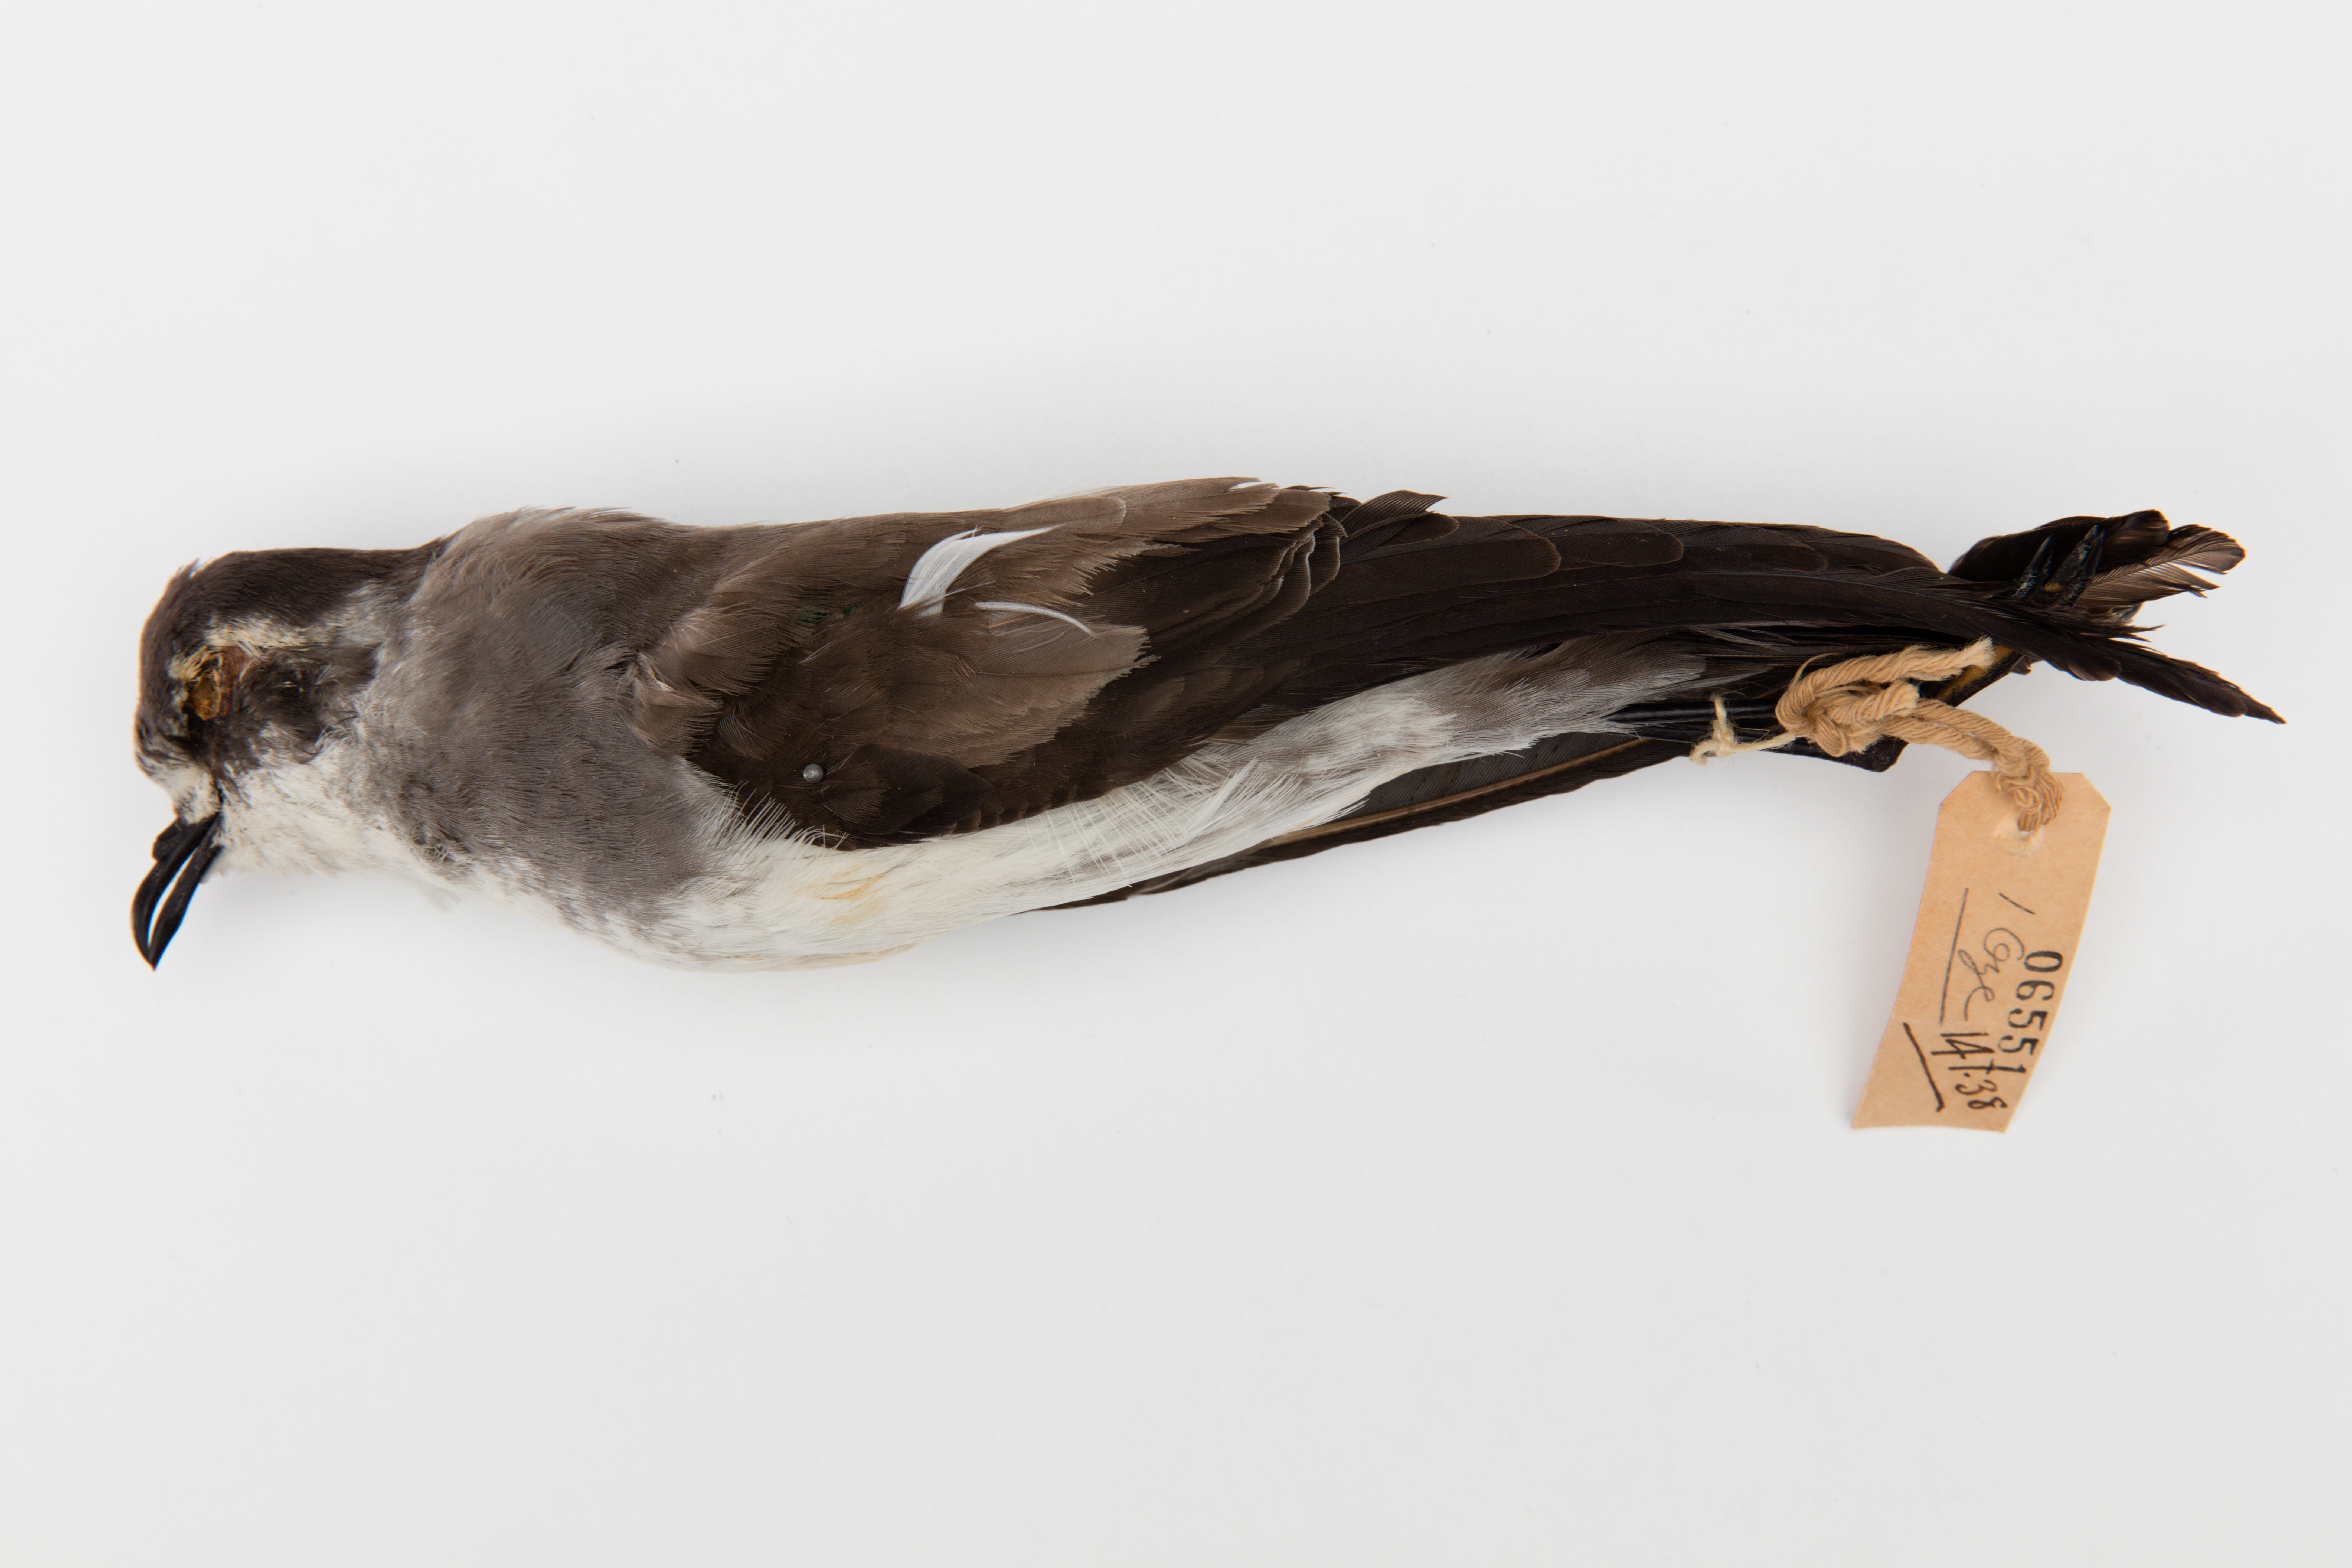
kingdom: Animalia
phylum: Chordata
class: Aves
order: Procellariiformes
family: Hydrobatidae
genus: Pelagodroma
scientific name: Pelagodroma marina
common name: White-faced storm-petrel
